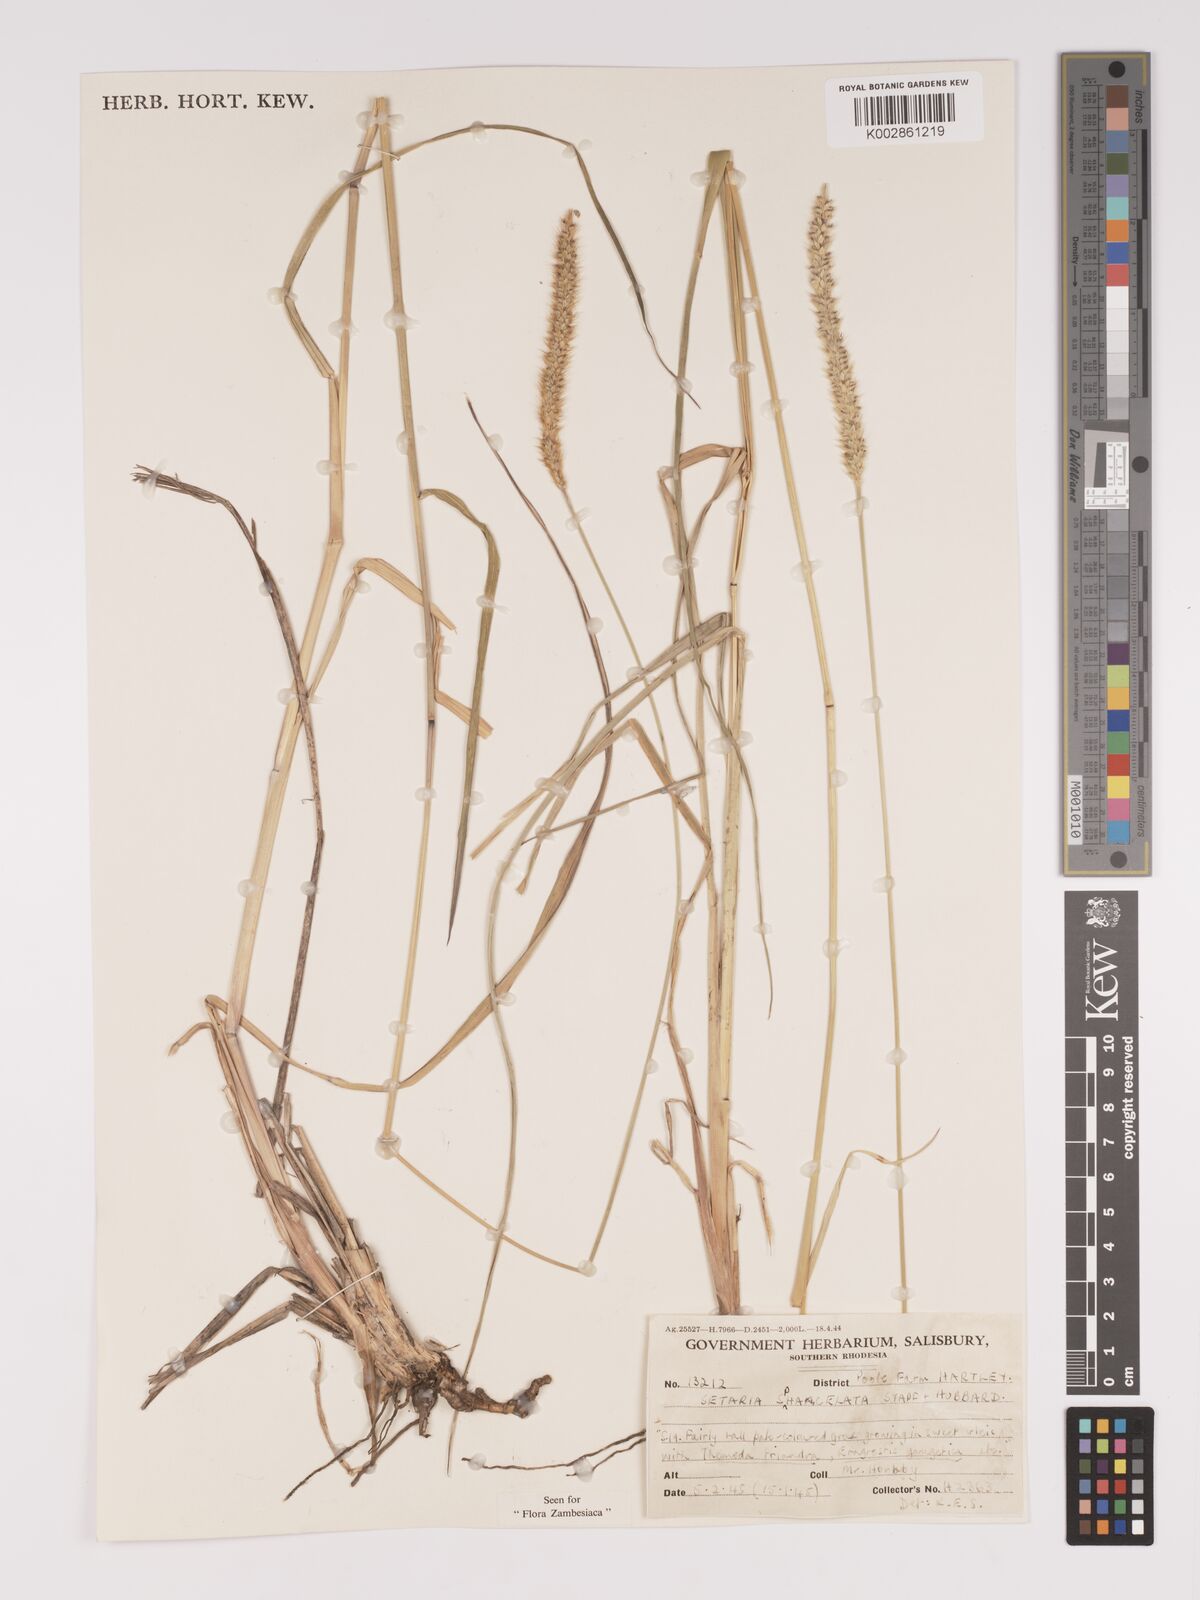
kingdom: Plantae
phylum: Tracheophyta
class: Liliopsida
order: Poales
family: Poaceae
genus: Setaria
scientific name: Setaria sphacelata
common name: African bristlegrass
